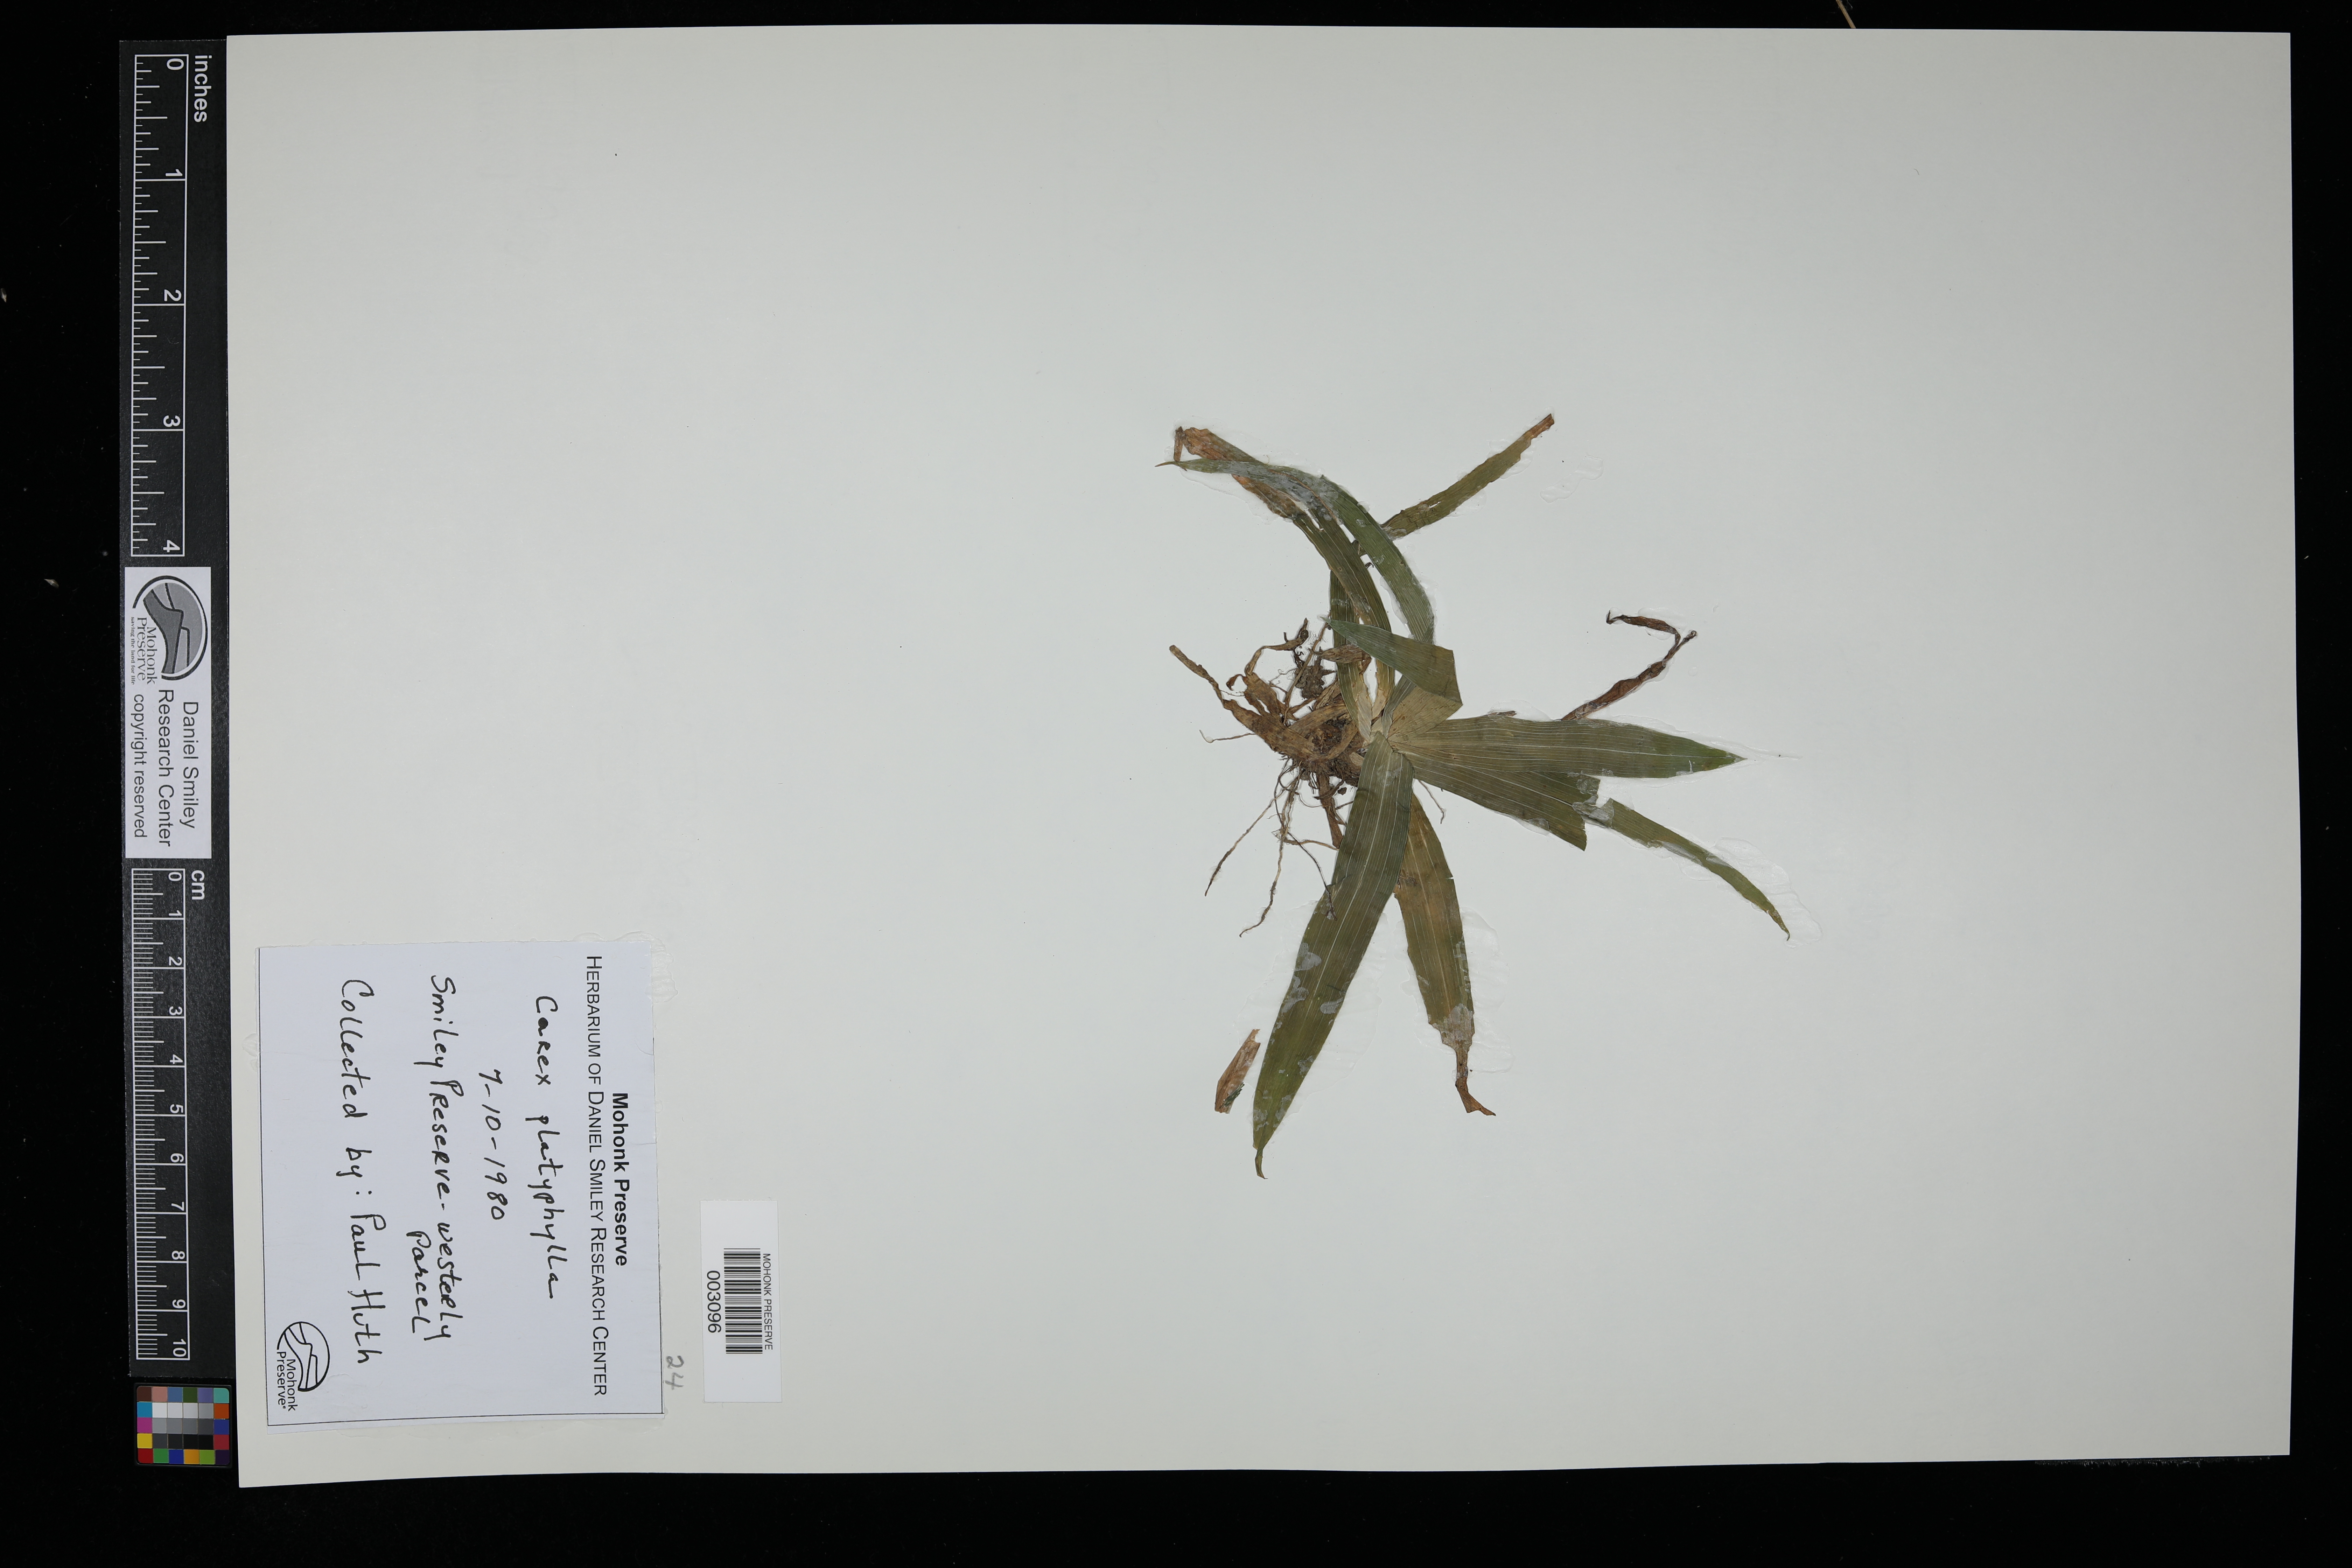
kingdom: Plantae
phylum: Tracheophyta
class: Liliopsida
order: Poales
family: Cyperaceae
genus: Carex
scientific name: Carex platyphylla
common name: Broad-leaved sedge
